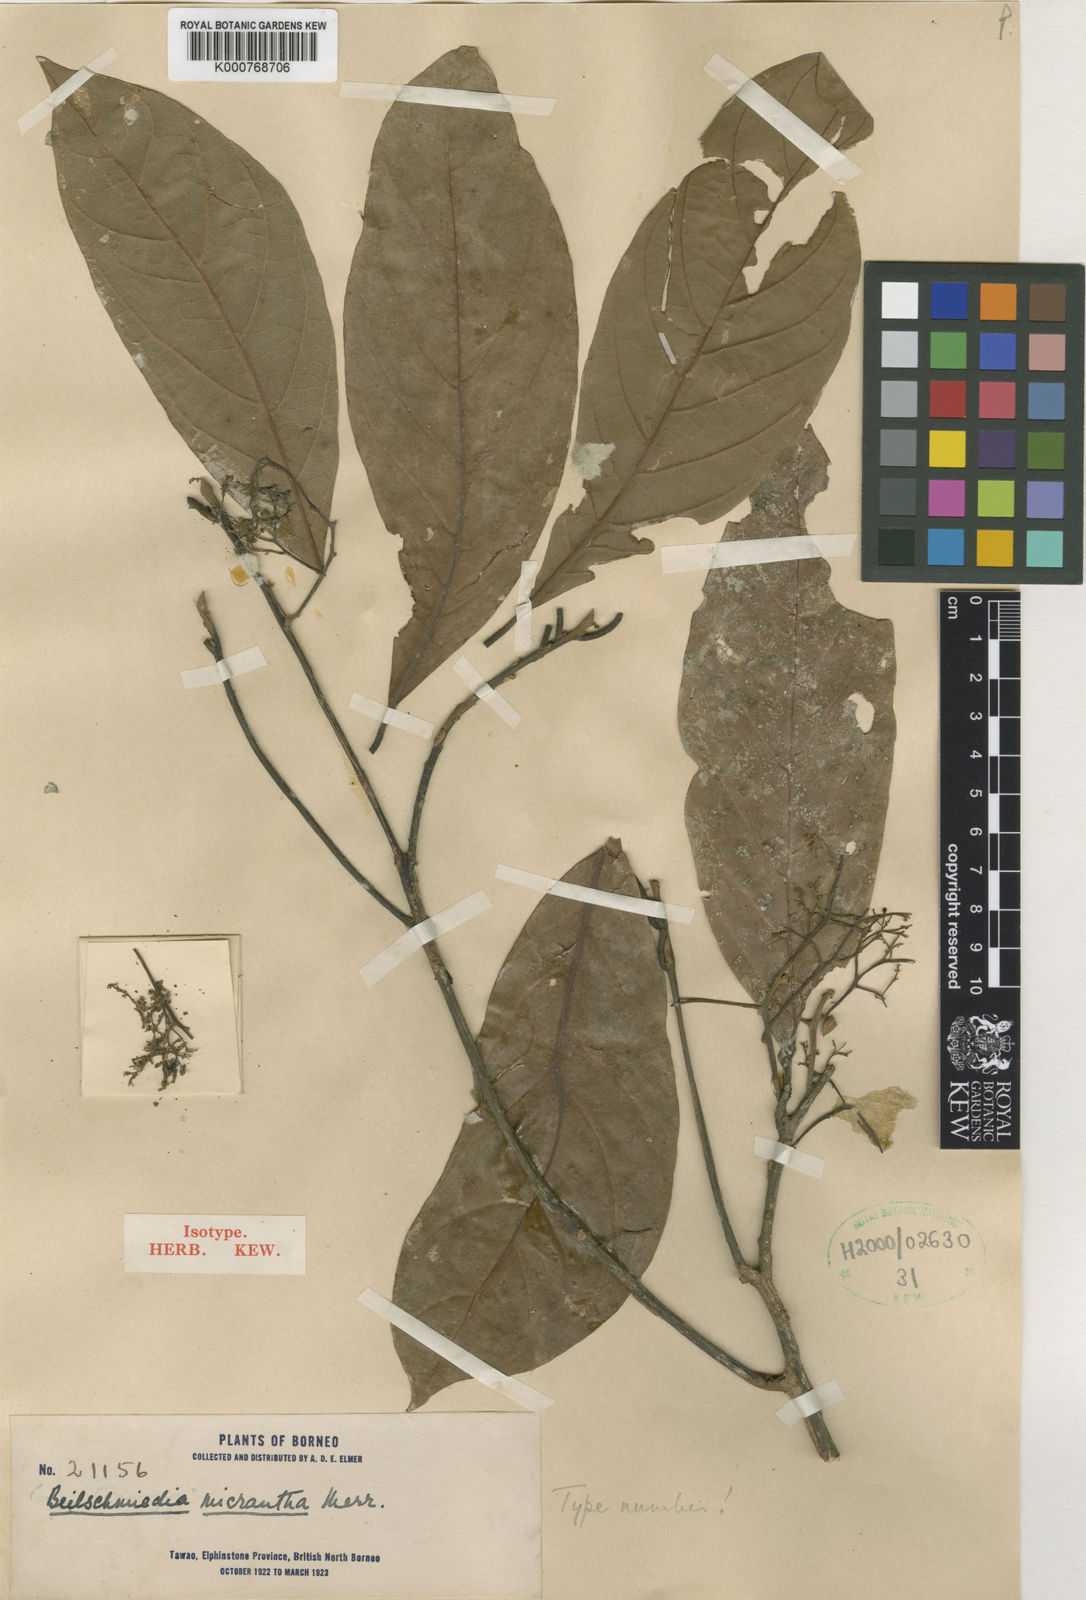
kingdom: Plantae
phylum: Tracheophyta
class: Magnoliopsida
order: Laurales
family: Lauraceae
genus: Beilschmiedia
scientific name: Beilschmiedia micrantha
